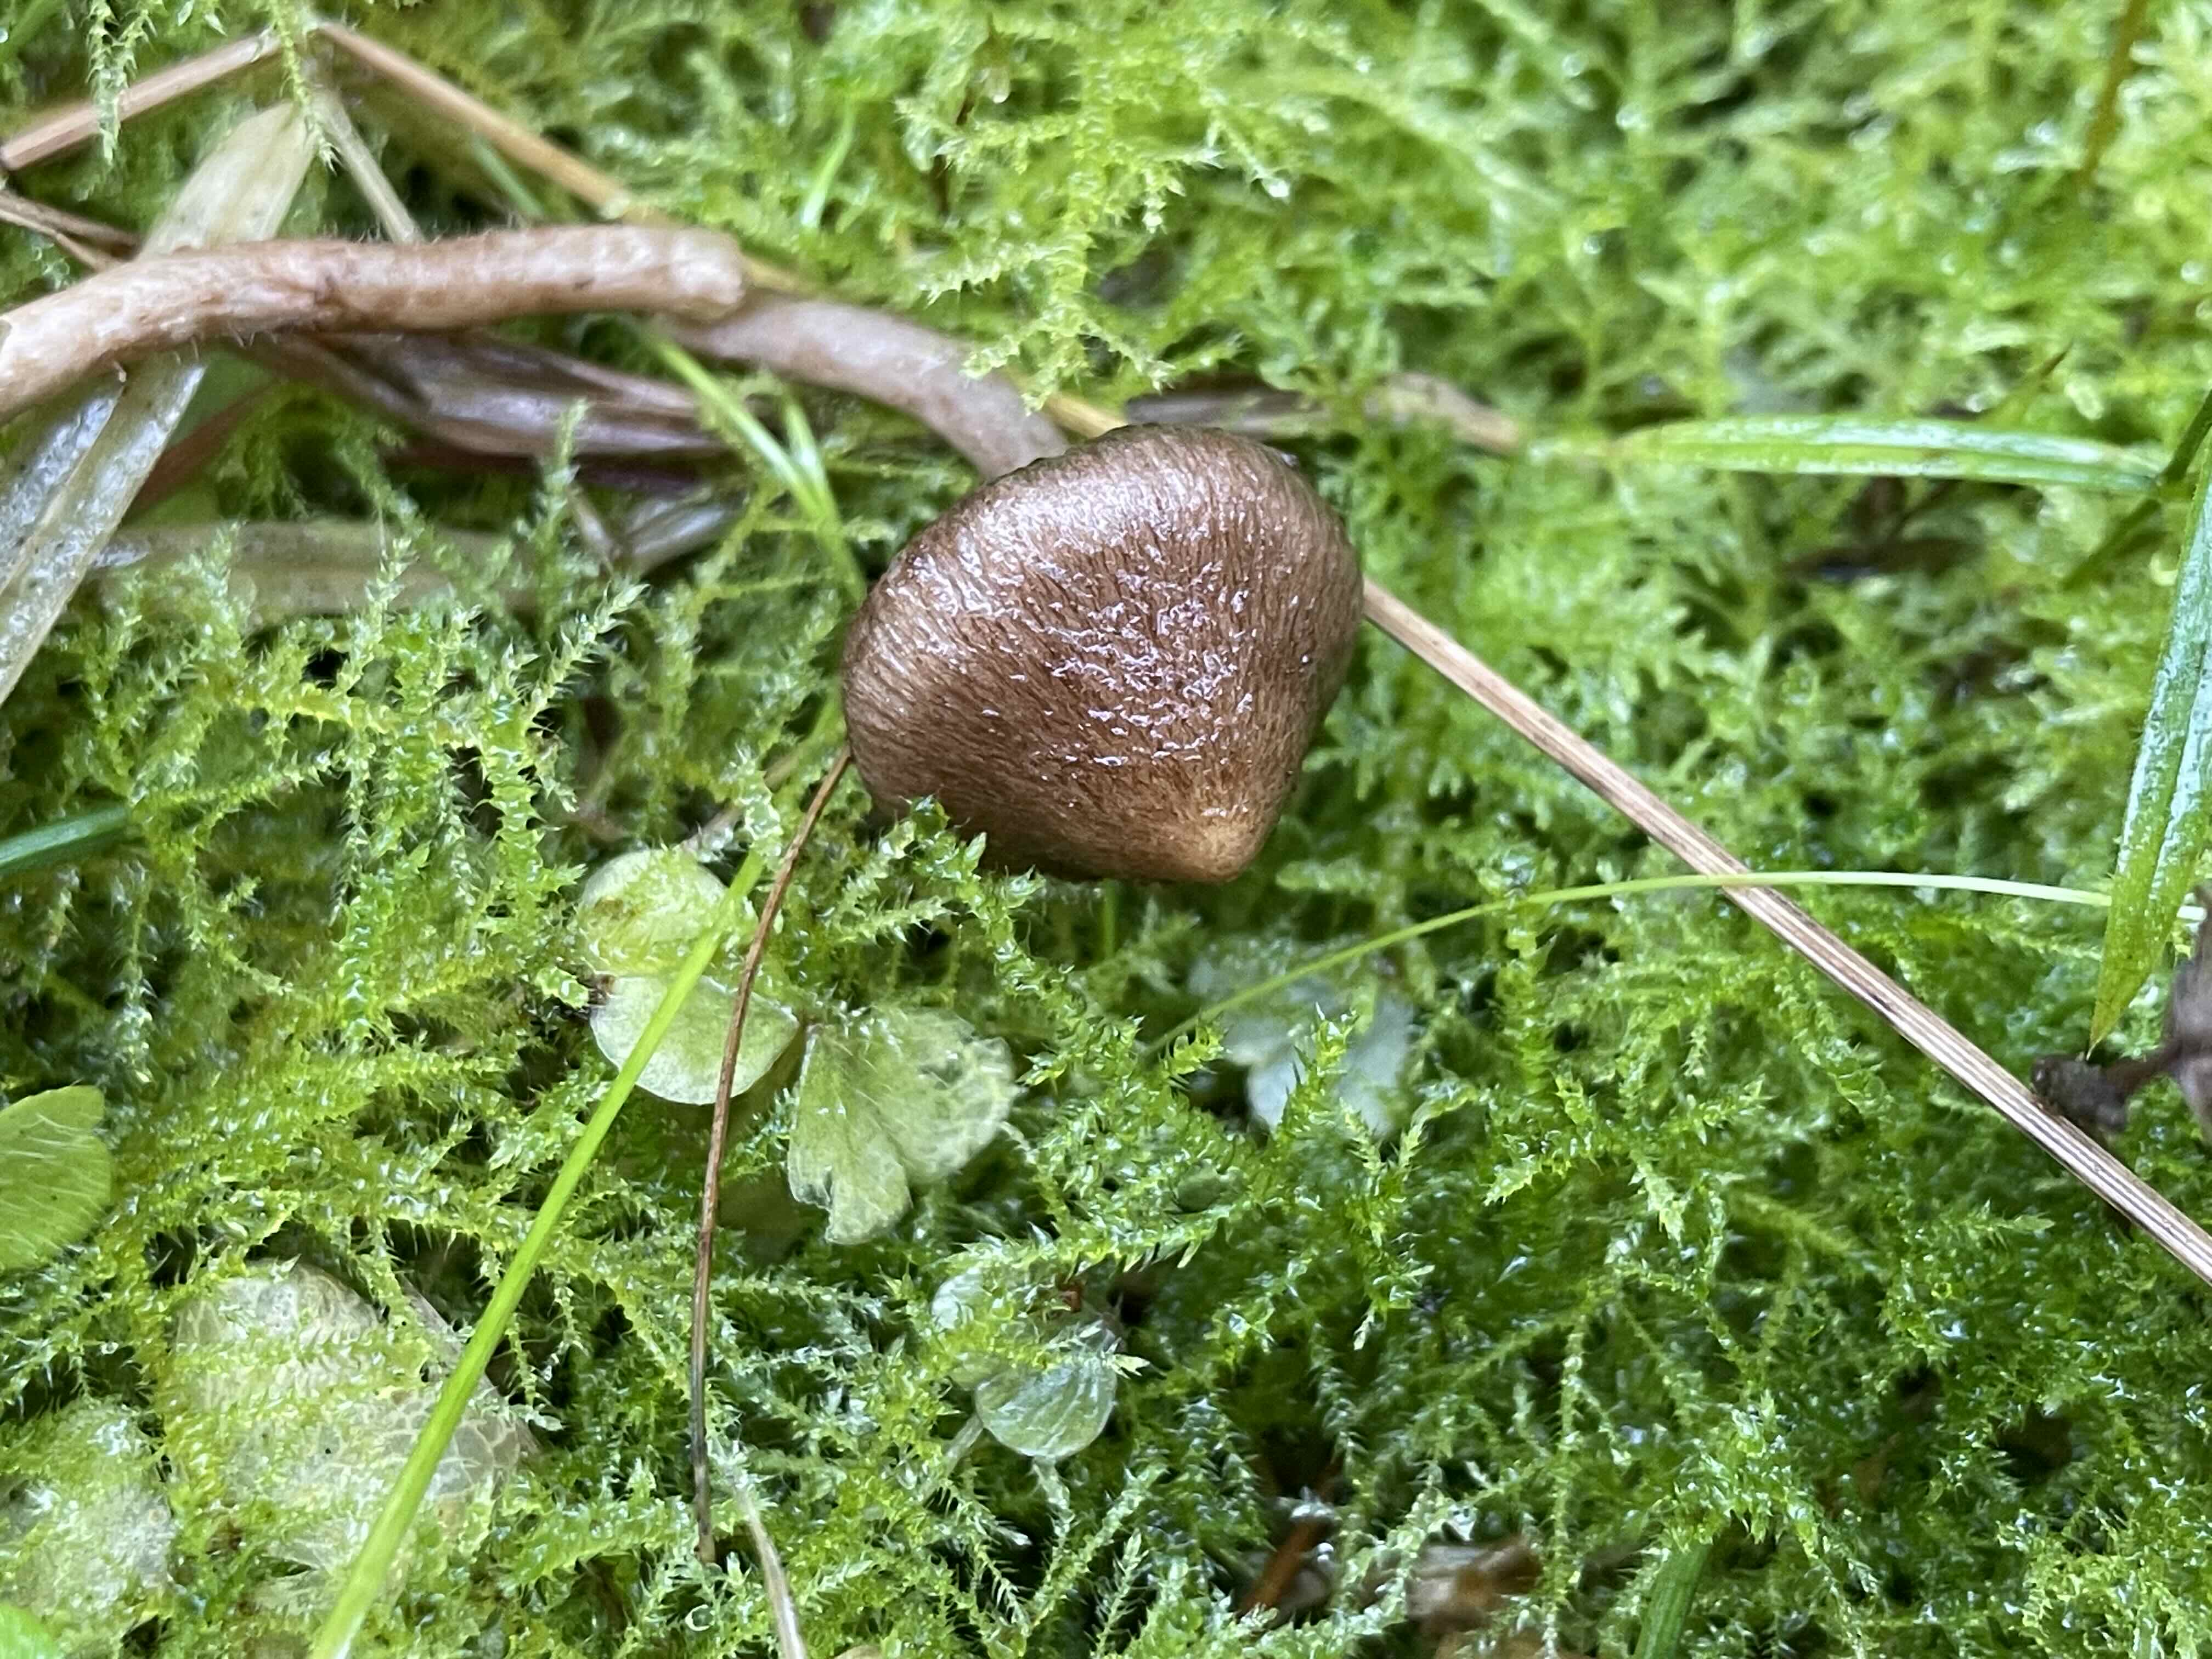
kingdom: Fungi
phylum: Basidiomycota
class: Agaricomycetes
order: Agaricales
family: Inocybaceae
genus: Inocybe
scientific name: Inocybe
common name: trævlhat
